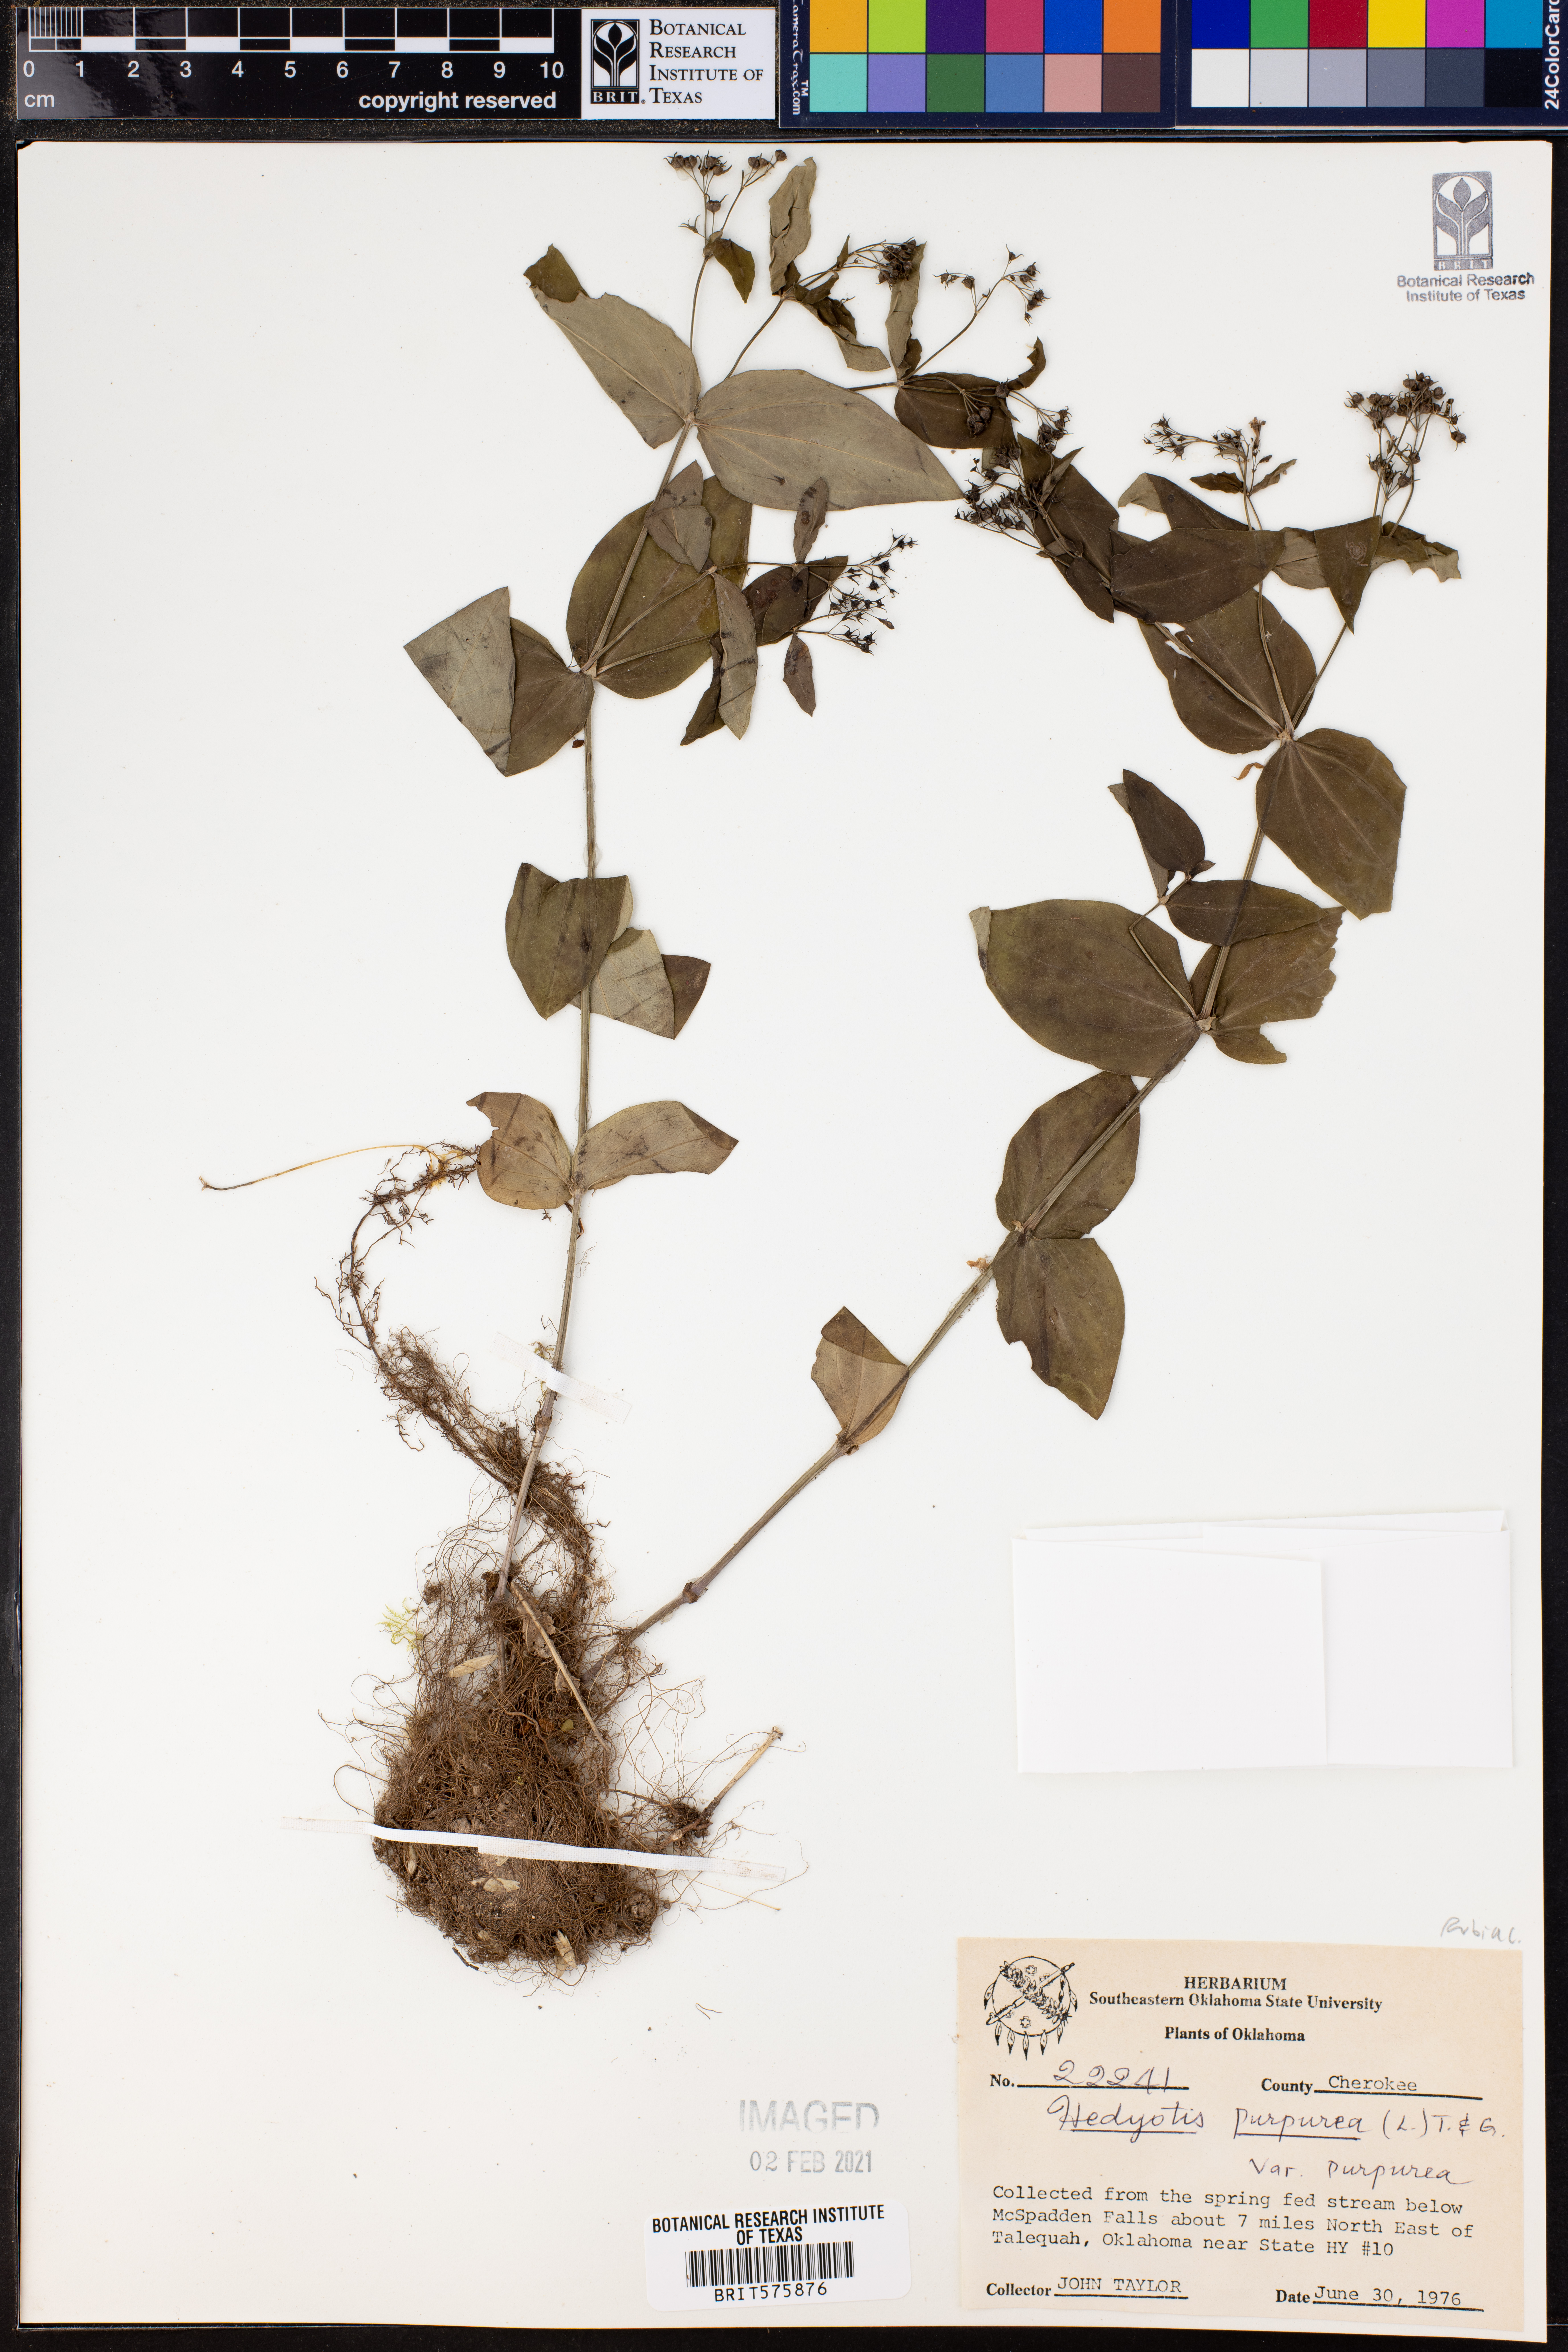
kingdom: Plantae
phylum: Tracheophyta
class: Magnoliopsida
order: Gentianales
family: Rubiaceae
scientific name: Rubiaceae
